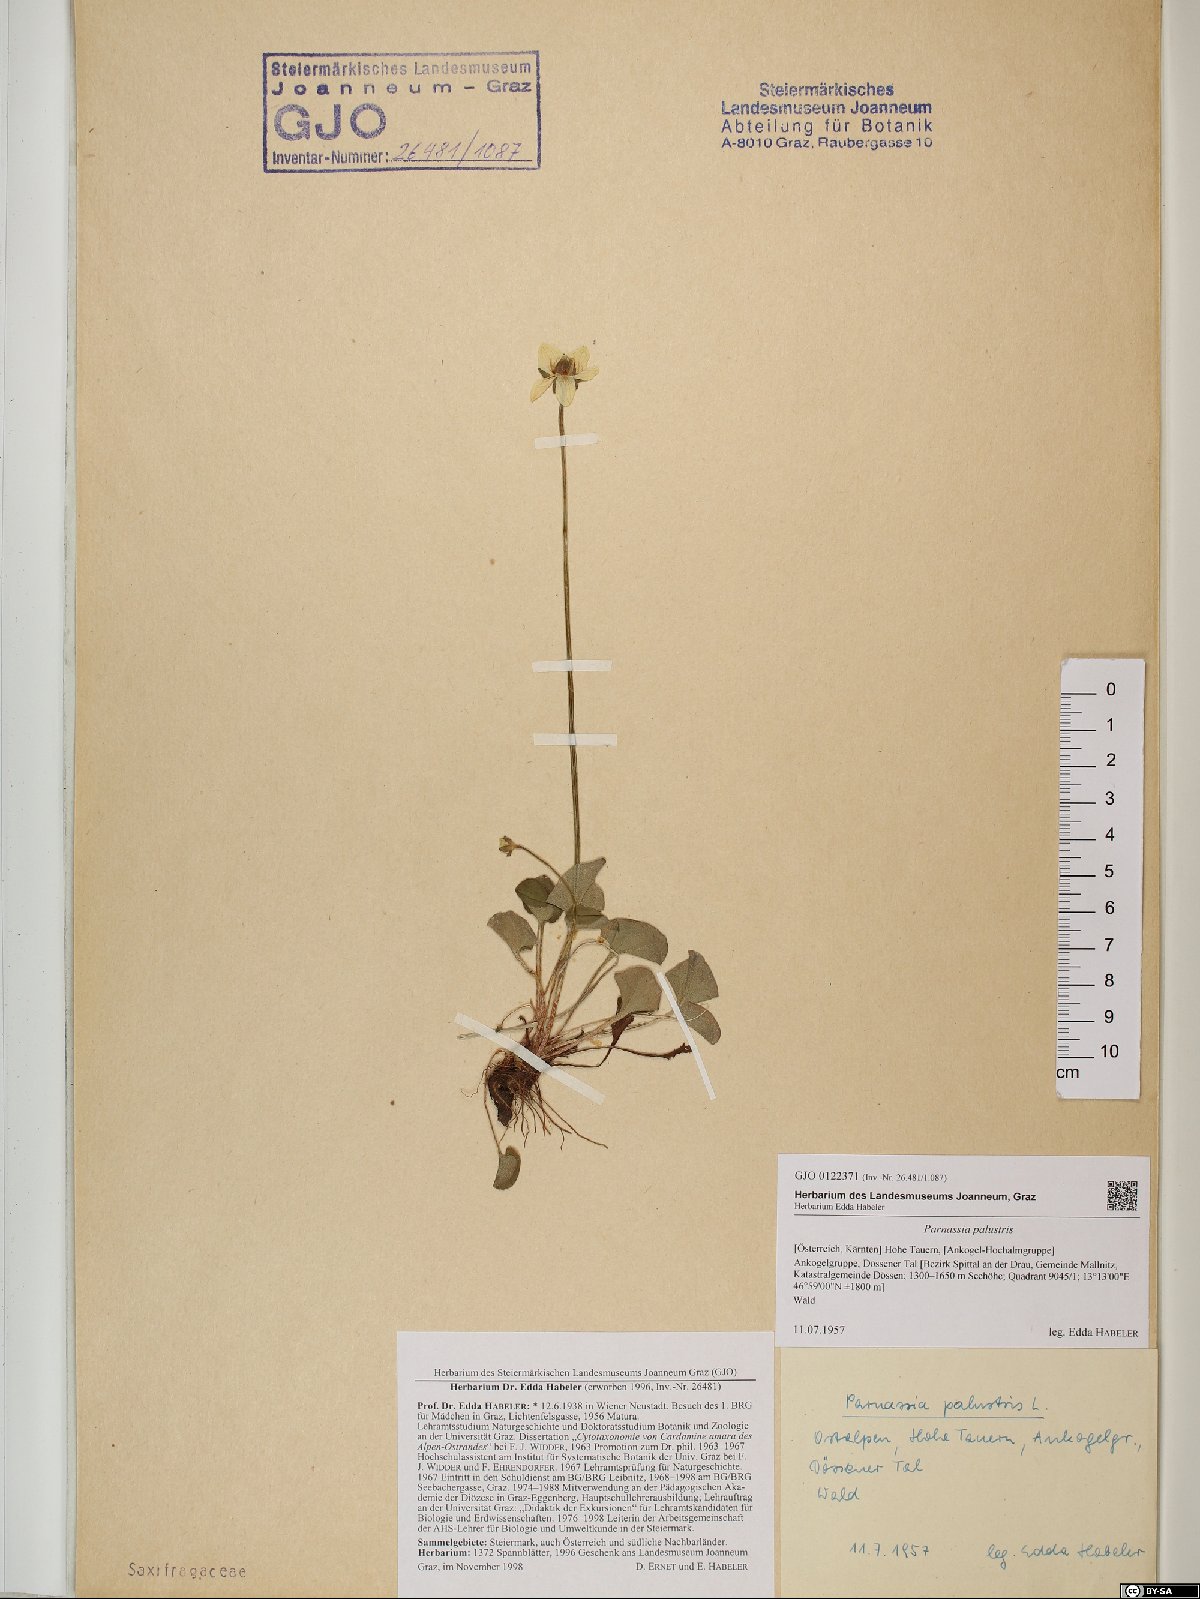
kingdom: Plantae
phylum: Tracheophyta
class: Magnoliopsida
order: Celastrales
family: Parnassiaceae
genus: Parnassia
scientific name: Parnassia palustris
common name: Grass-of-parnassus
